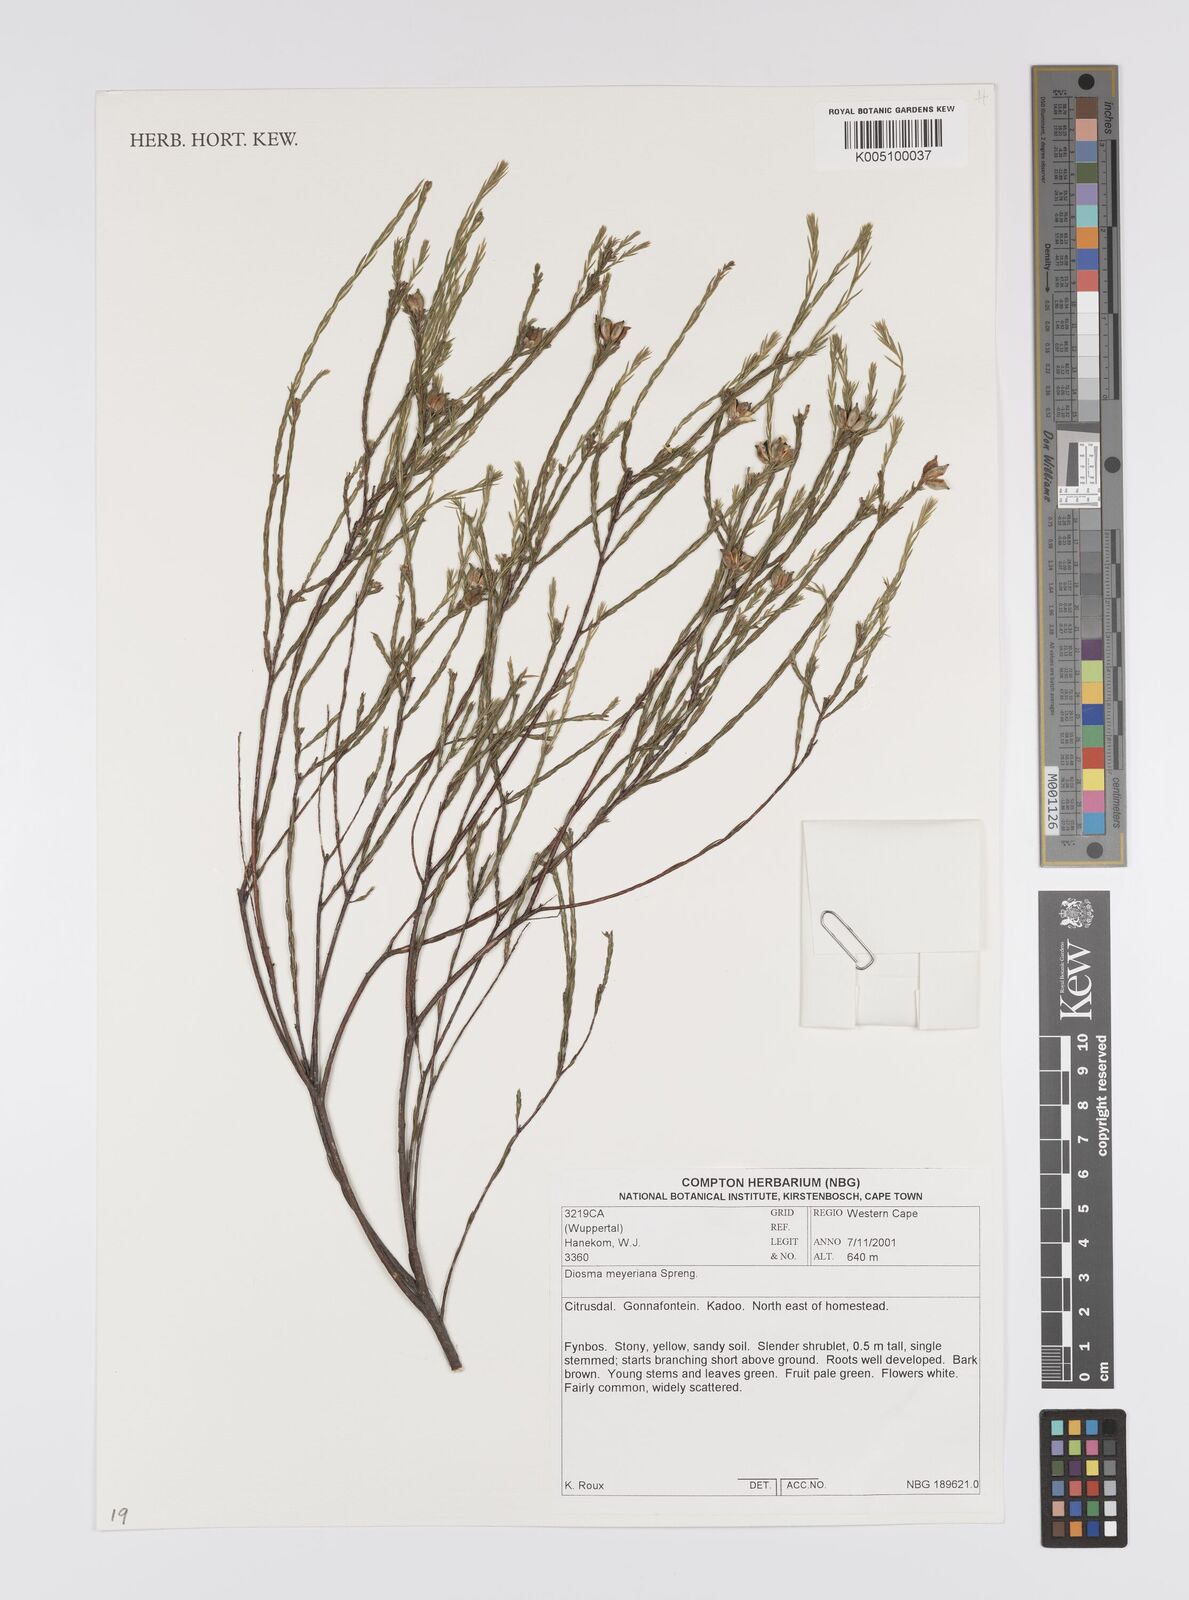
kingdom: Plantae
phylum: Tracheophyta
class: Magnoliopsida
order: Sapindales
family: Rutaceae
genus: Diosma
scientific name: Diosma
